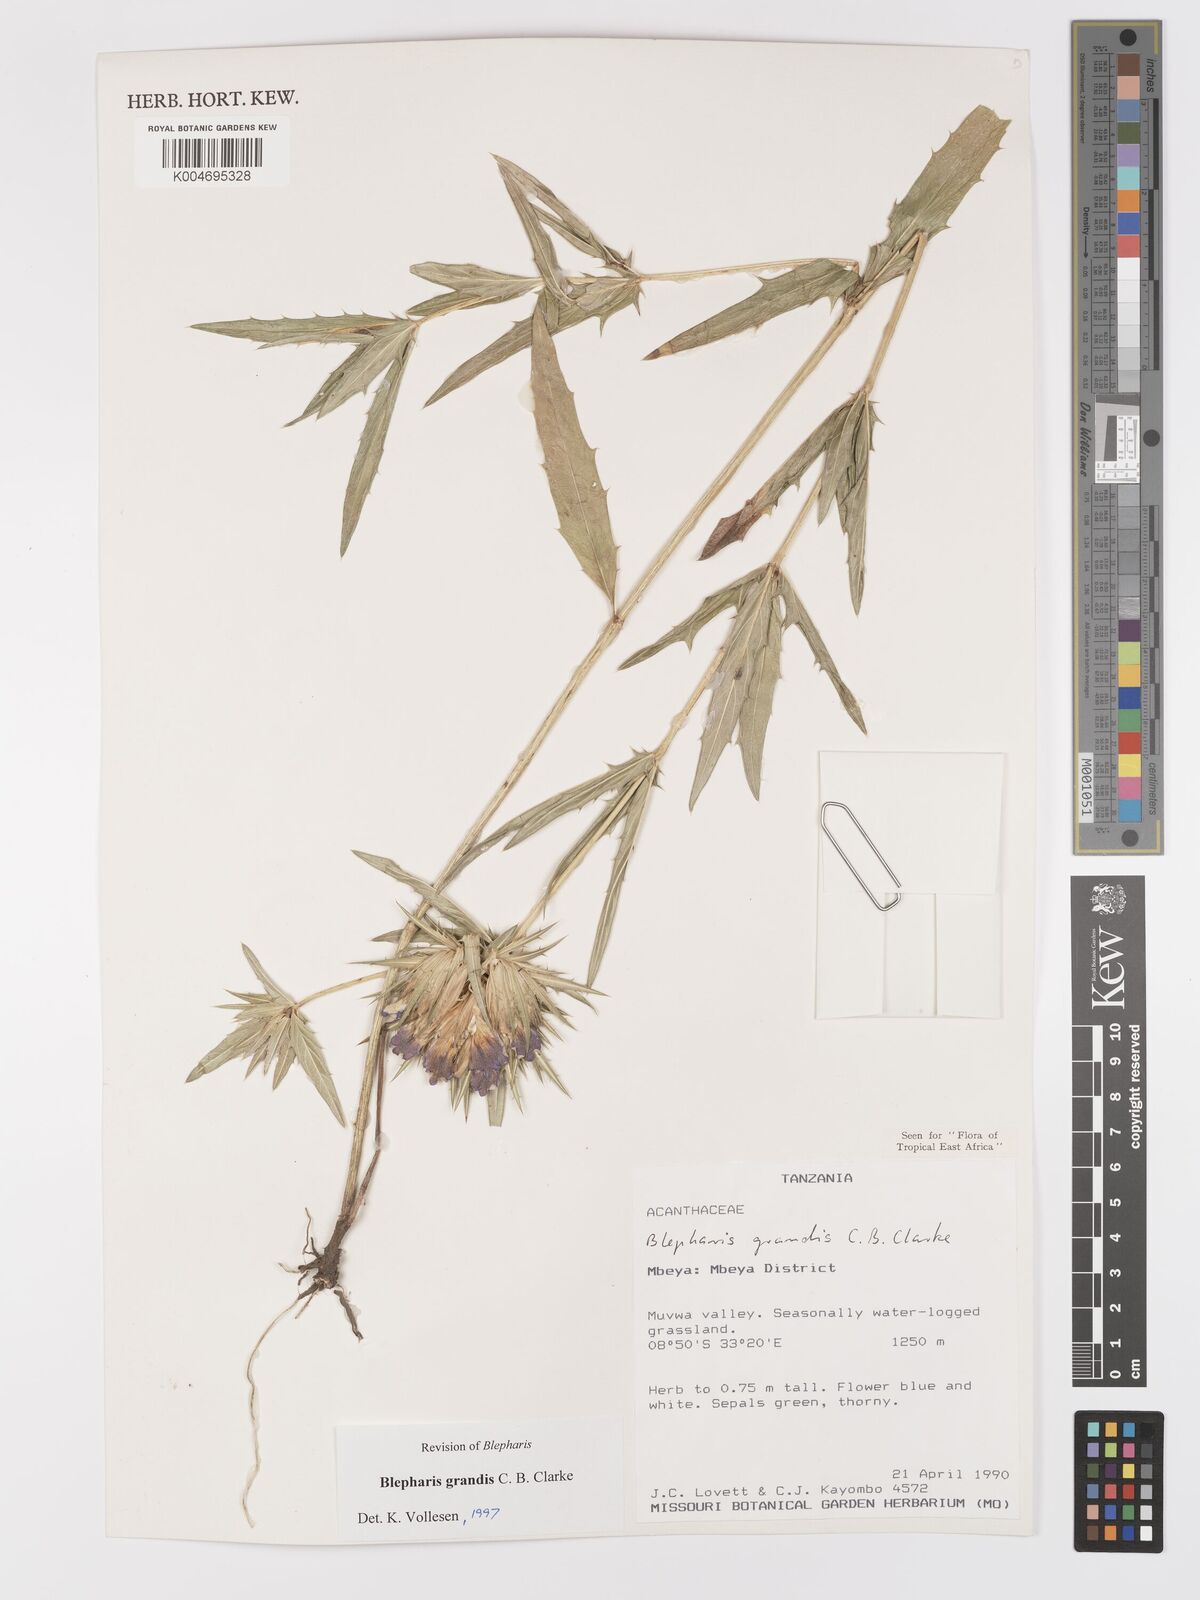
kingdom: Plantae
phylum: Tracheophyta
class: Magnoliopsida
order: Lamiales
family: Acanthaceae
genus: Blepharis
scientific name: Blepharis grandis
